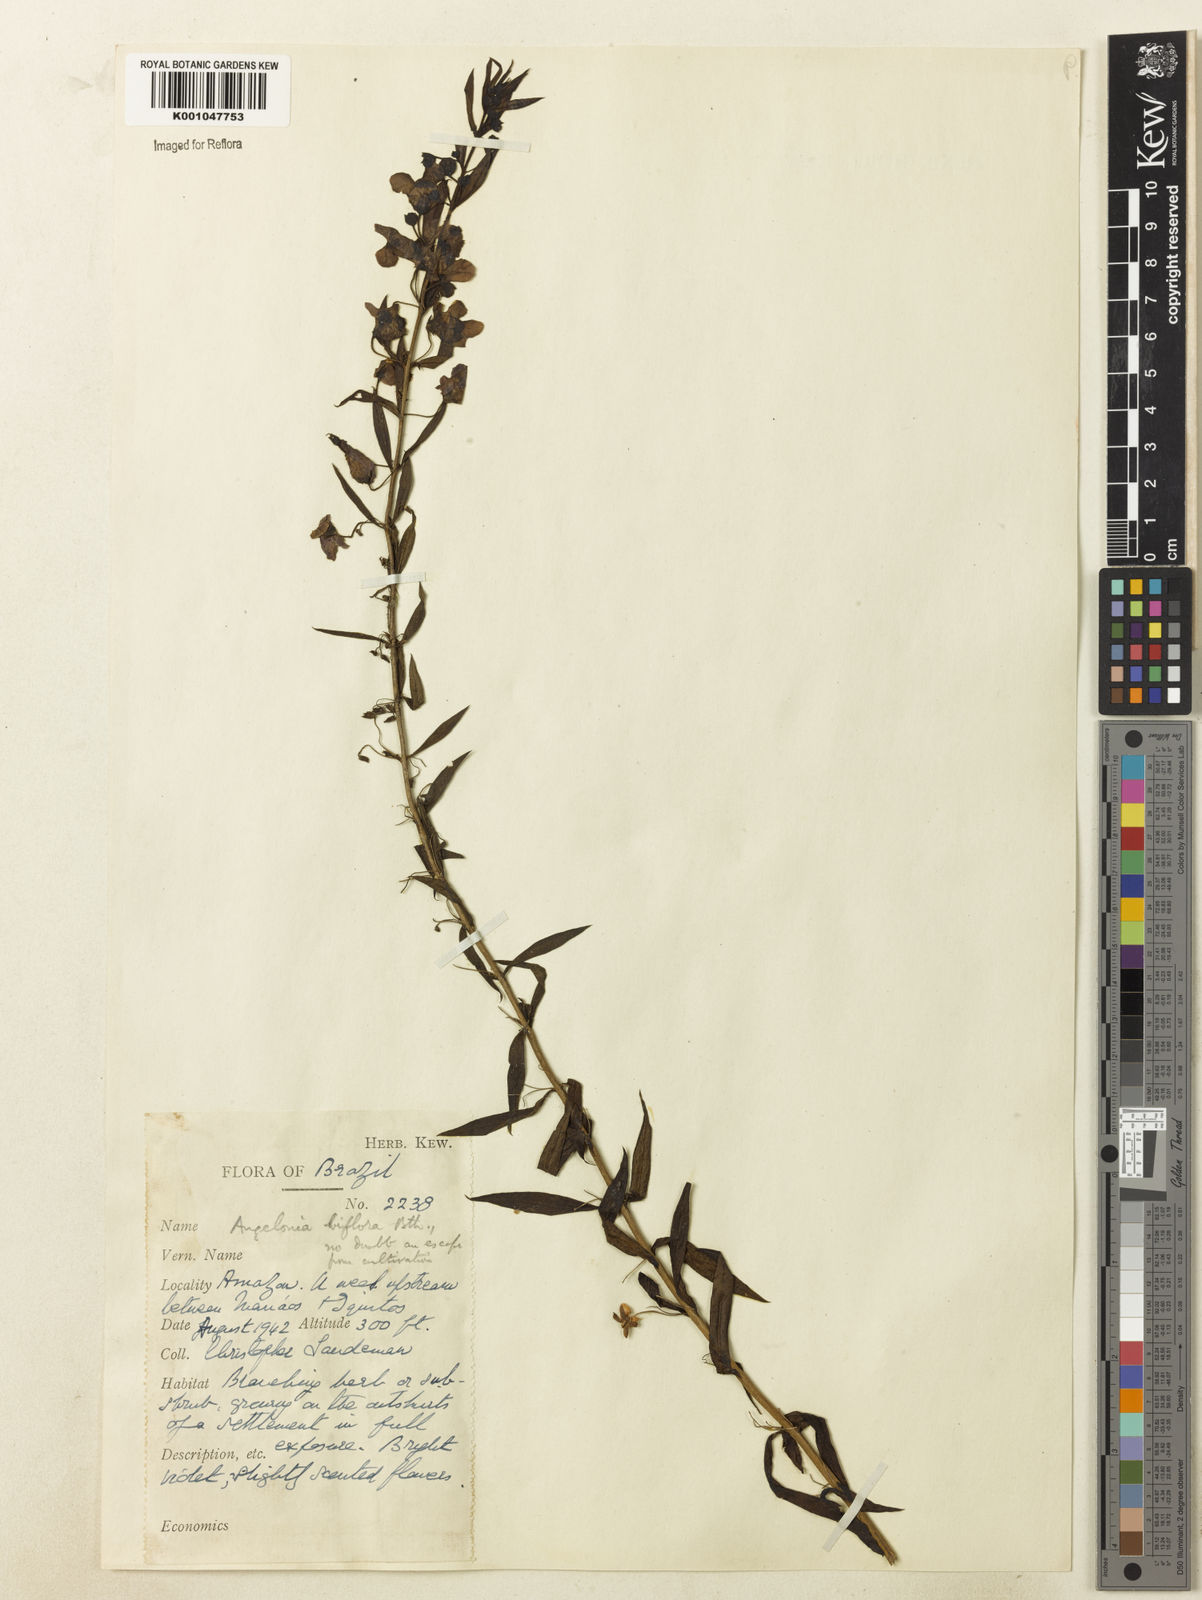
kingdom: Plantae
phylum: Tracheophyta
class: Magnoliopsida
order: Lamiales
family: Plantaginaceae
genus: Angelonia
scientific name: Angelonia biflora
